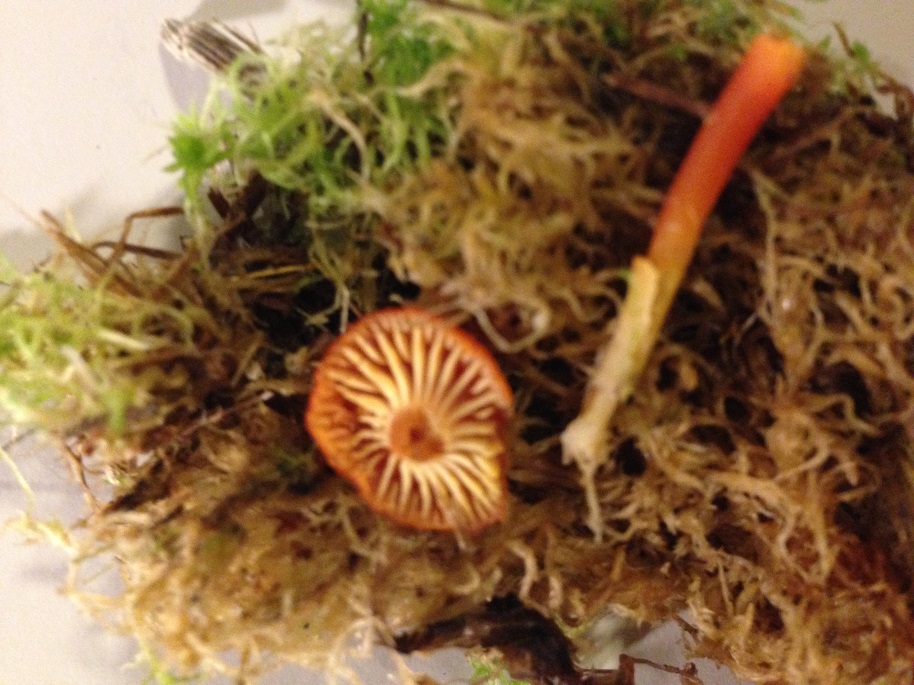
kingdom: Fungi
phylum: Basidiomycota
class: Agaricomycetes
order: Agaricales
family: Hygrophoraceae
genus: Hygrocybe
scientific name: Hygrocybe coccineocrenata
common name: tørvemos-vokshat
